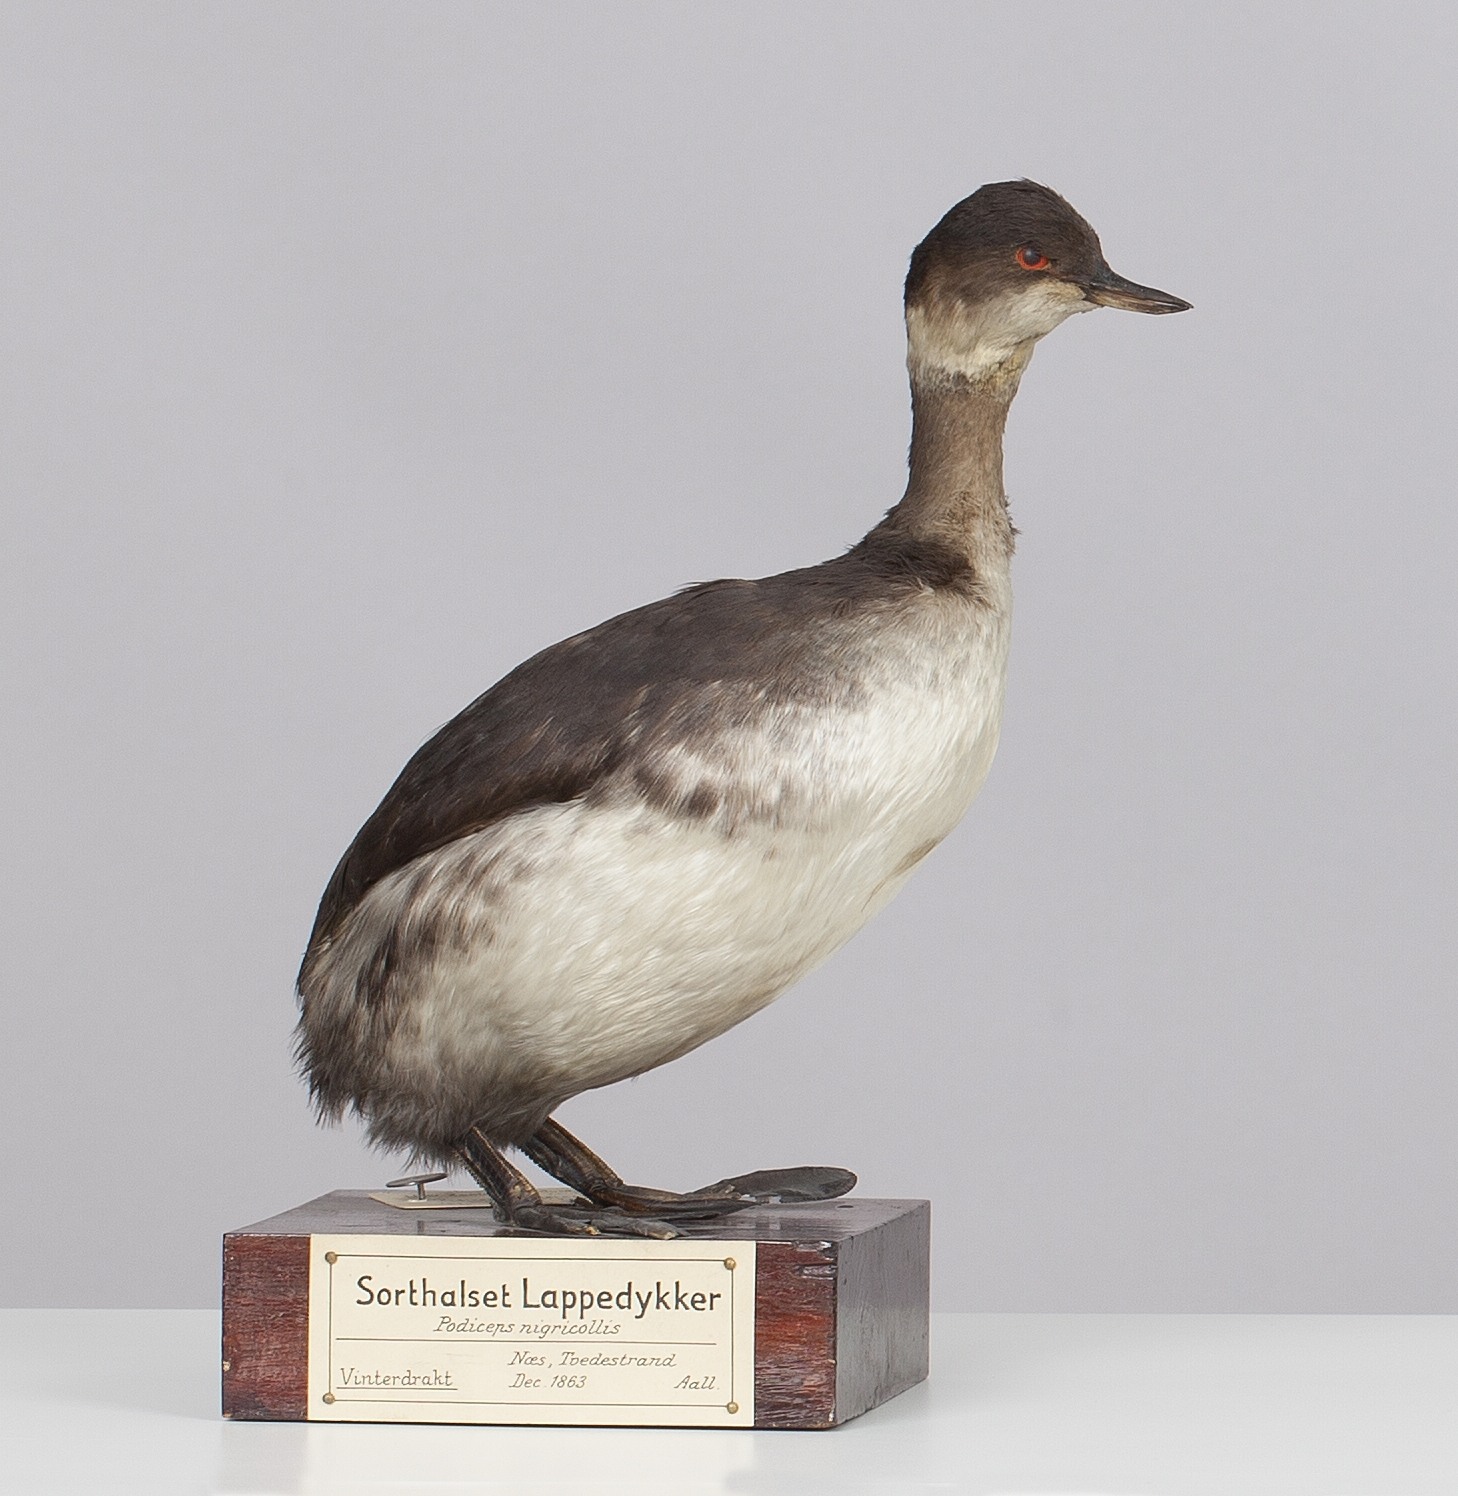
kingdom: Animalia
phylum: Chordata
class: Aves
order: Podicipediformes
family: Podicipedidae
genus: Podiceps
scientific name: Podiceps nigricollis
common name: Black-necked grebe
